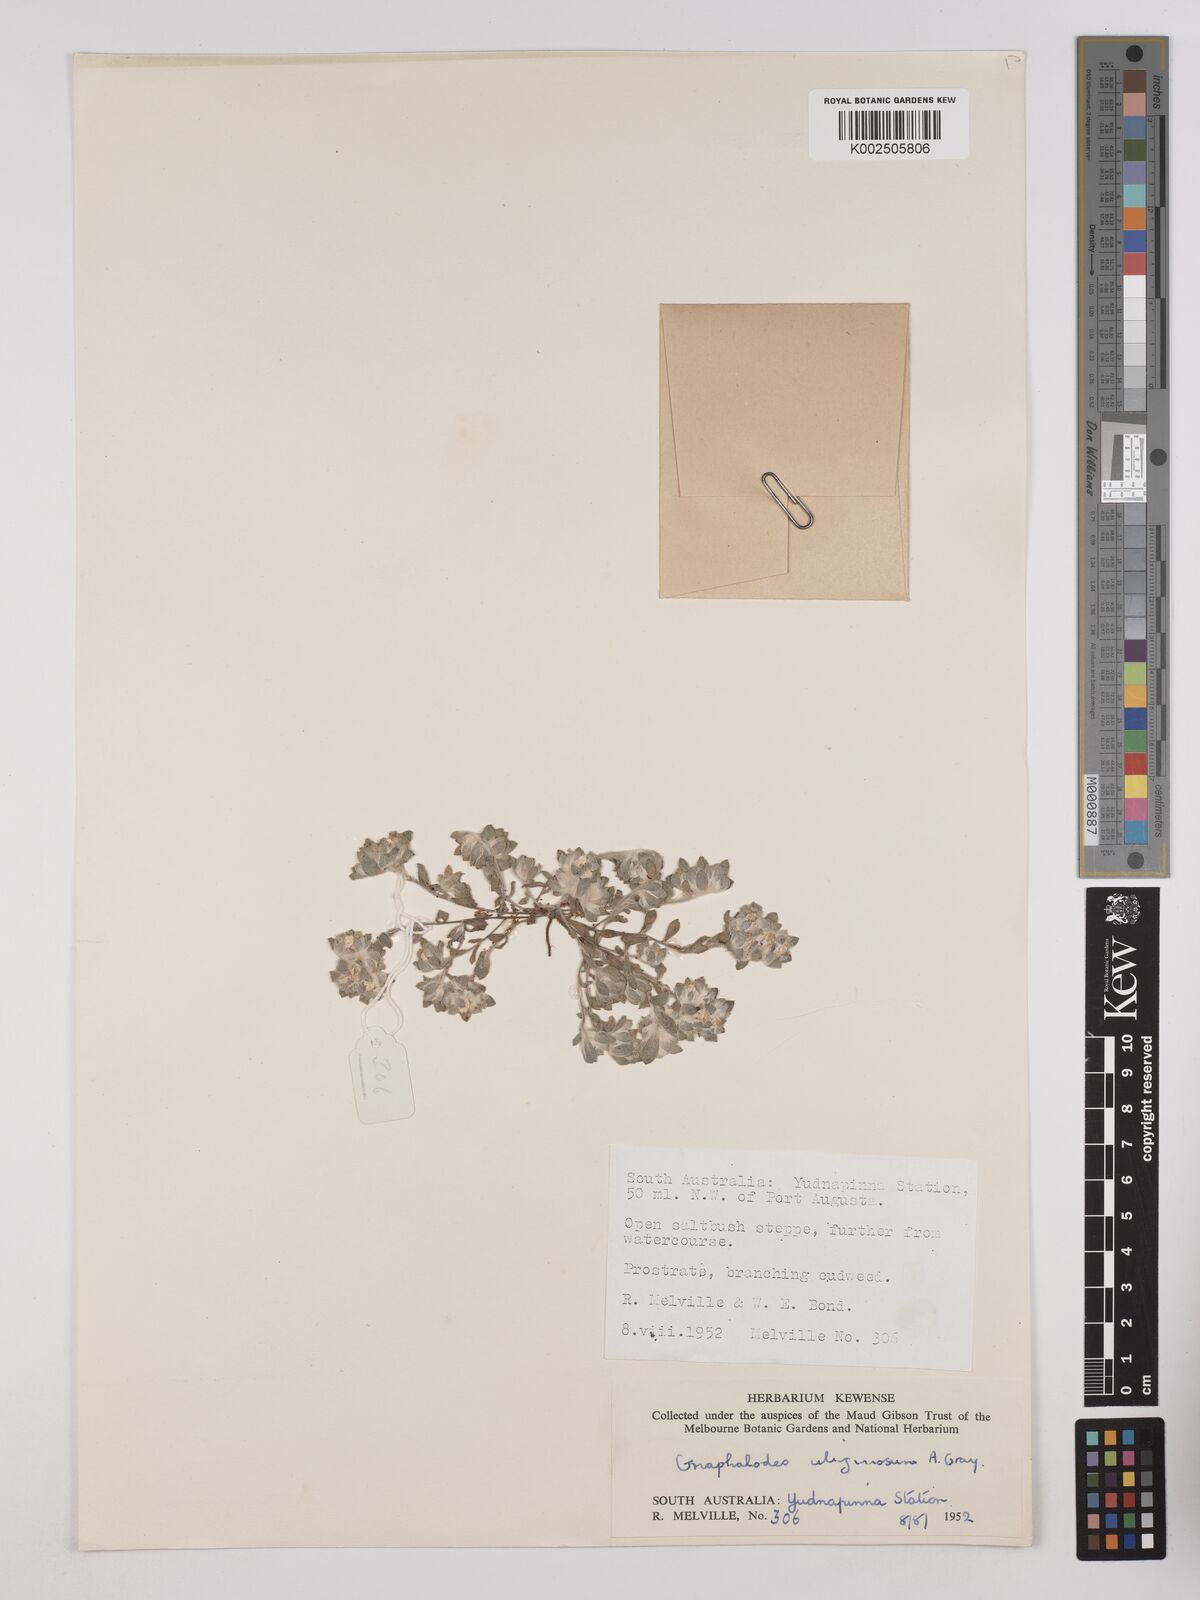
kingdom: Plantae
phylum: Tracheophyta
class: Magnoliopsida
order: Asterales
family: Asteraceae
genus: Actinobole
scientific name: Actinobole uliginosum
